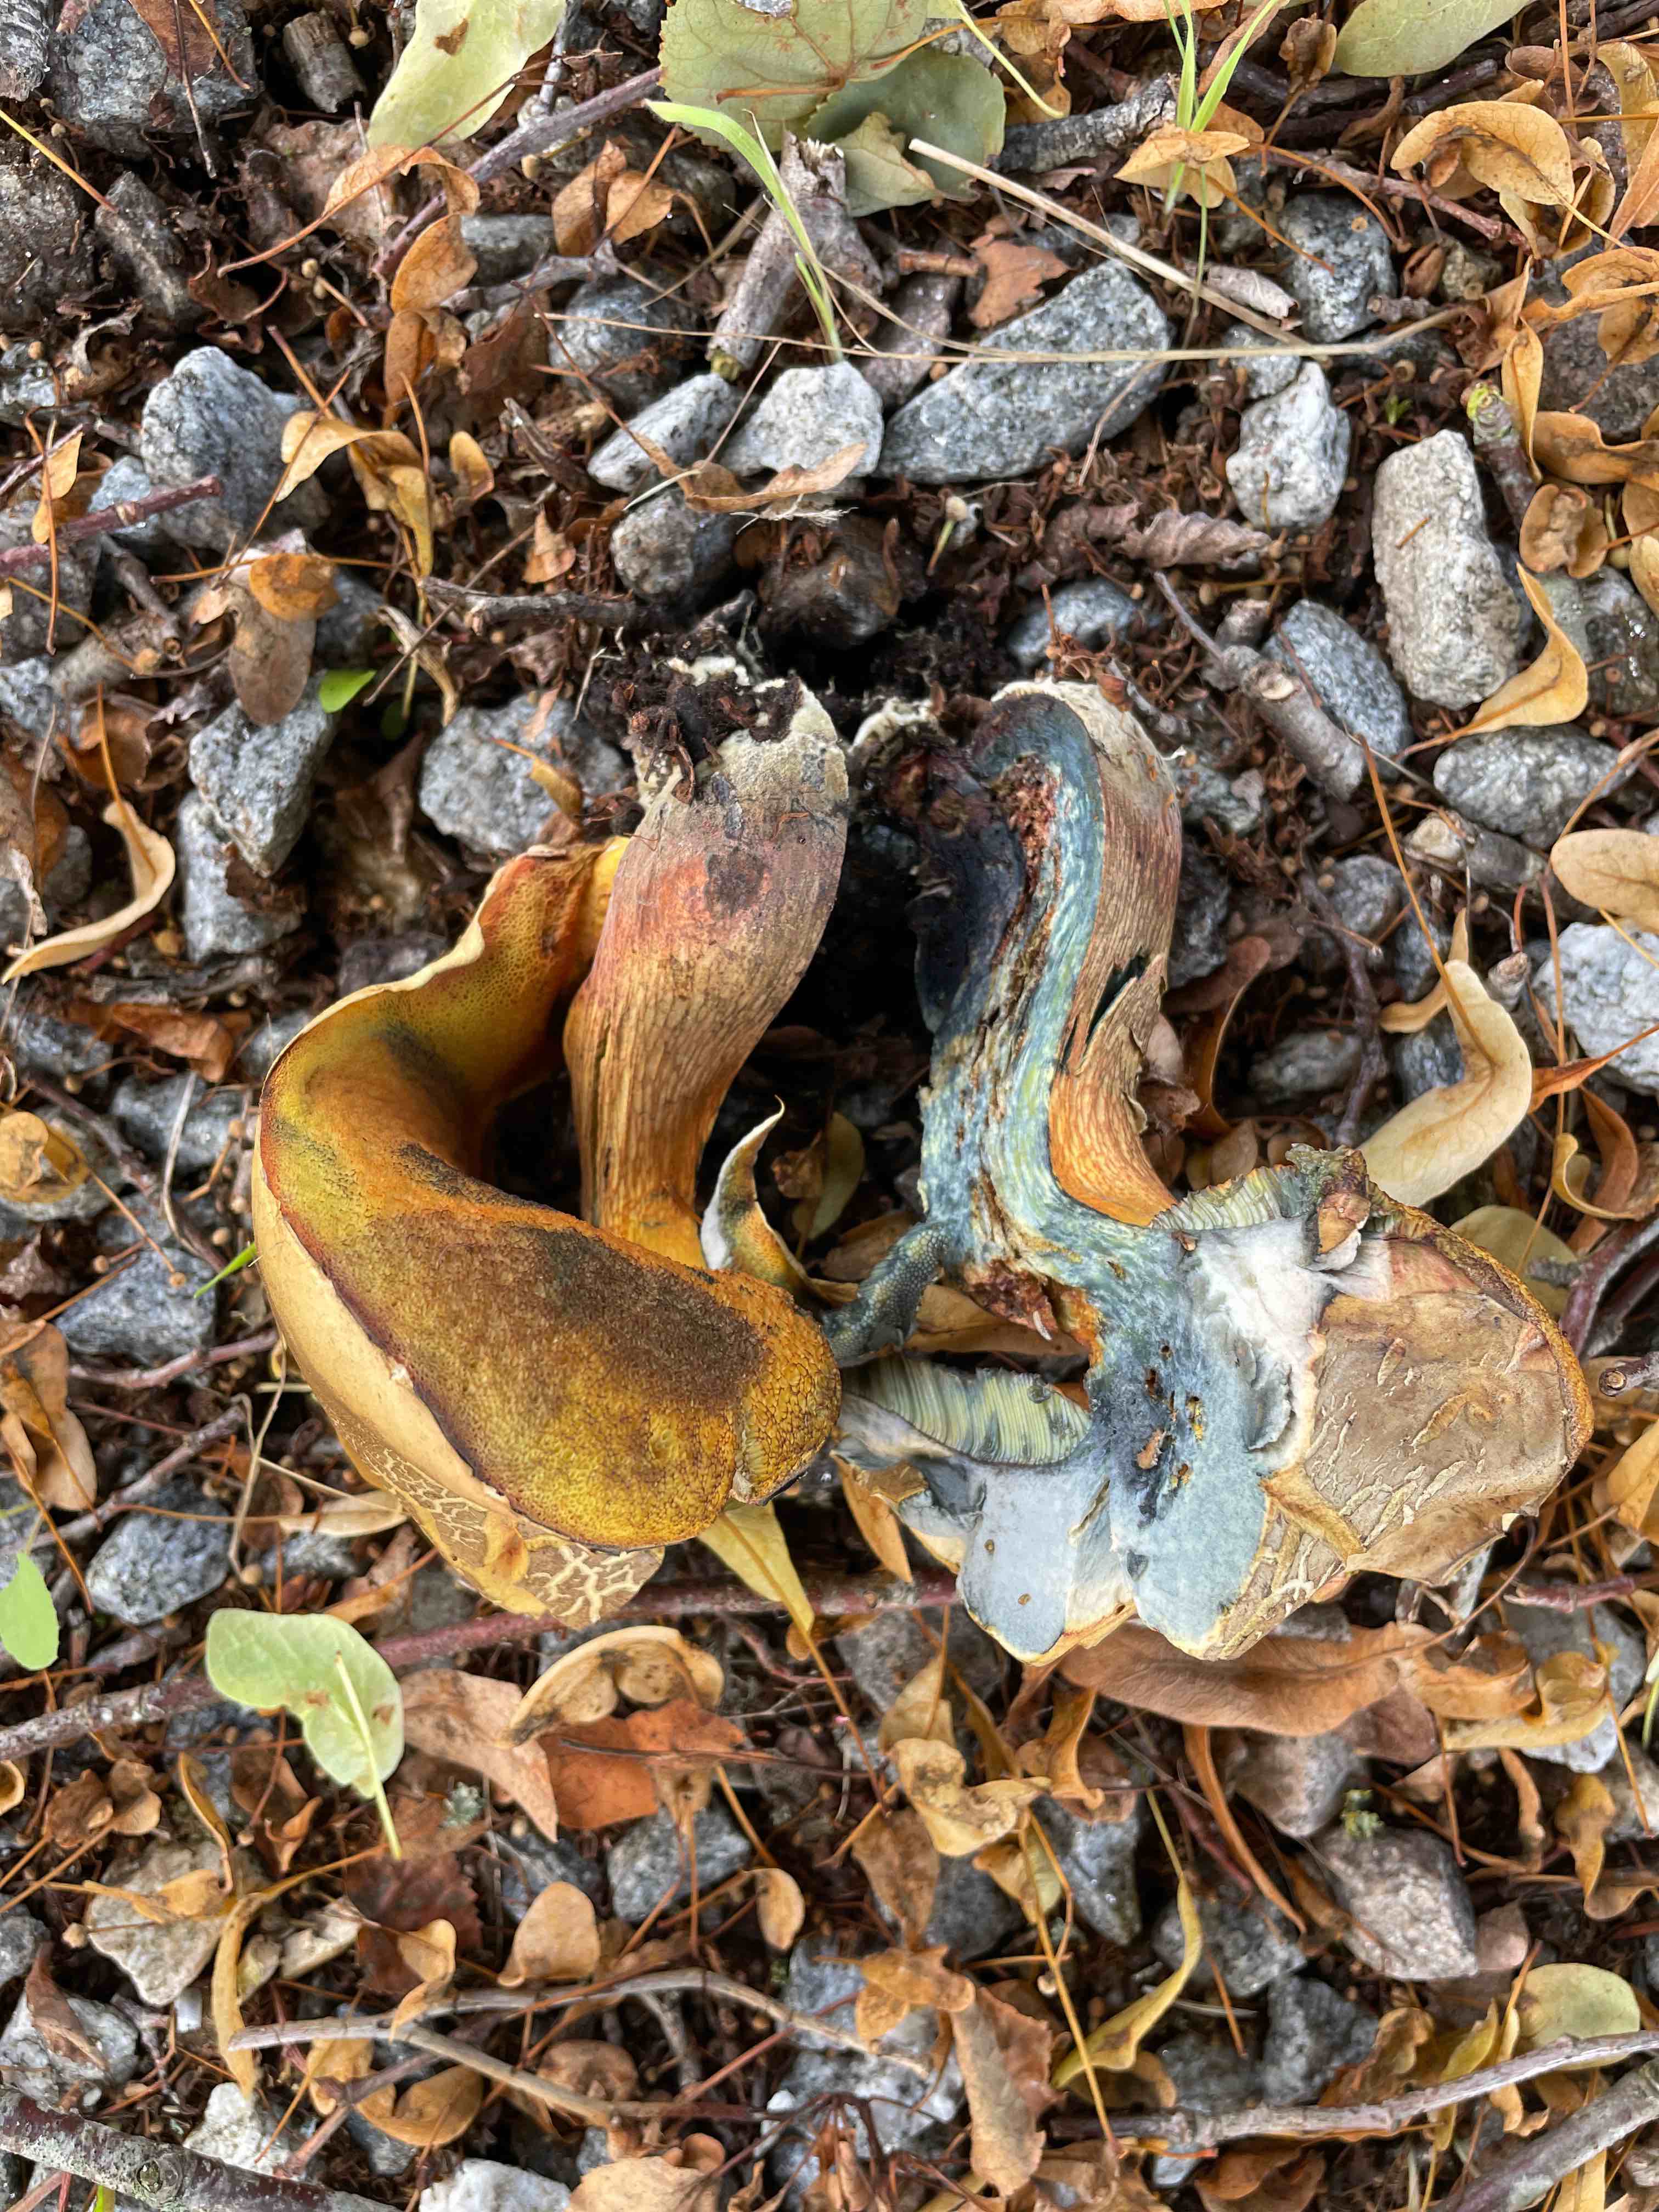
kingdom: Fungi
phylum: Basidiomycota
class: Agaricomycetes
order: Boletales
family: Boletaceae
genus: Suillellus
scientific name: Suillellus luridus
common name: netstokket indigorørhat
